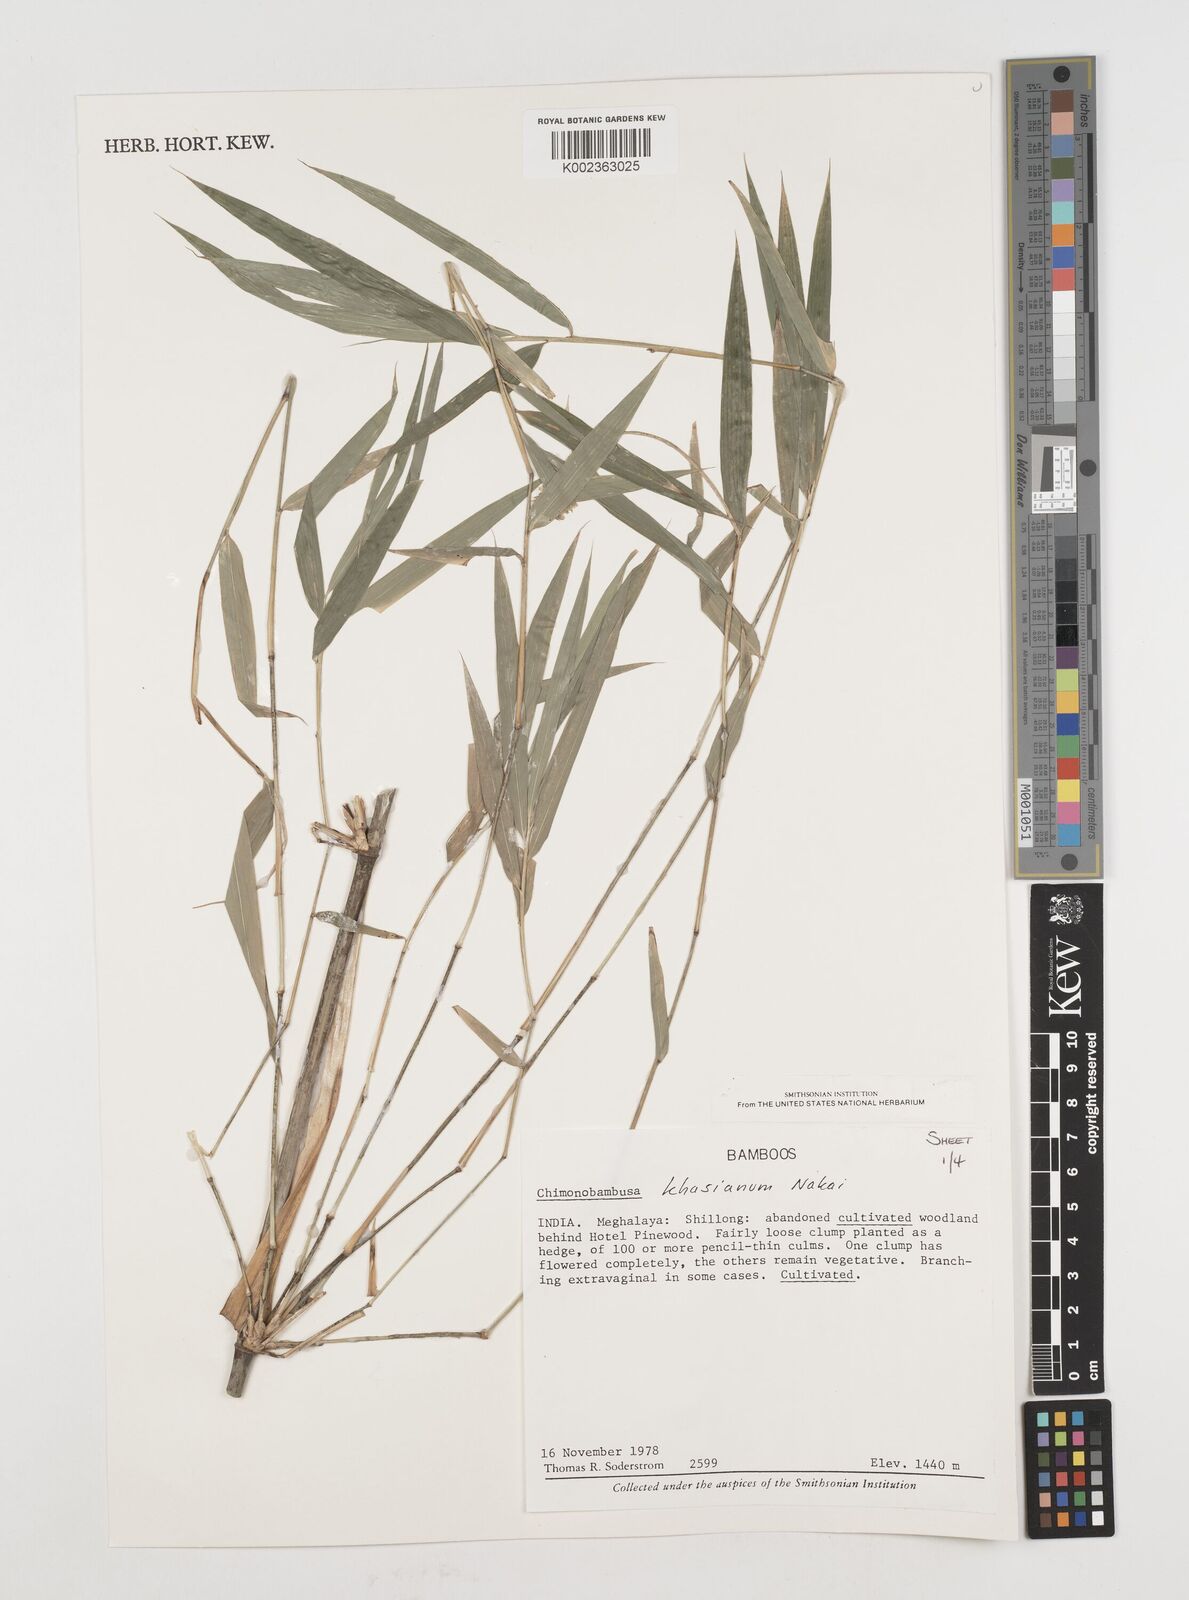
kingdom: Plantae
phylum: Tracheophyta
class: Liliopsida
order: Poales
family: Poaceae
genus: Drepanostachyum
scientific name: Drepanostachyum khasianum
